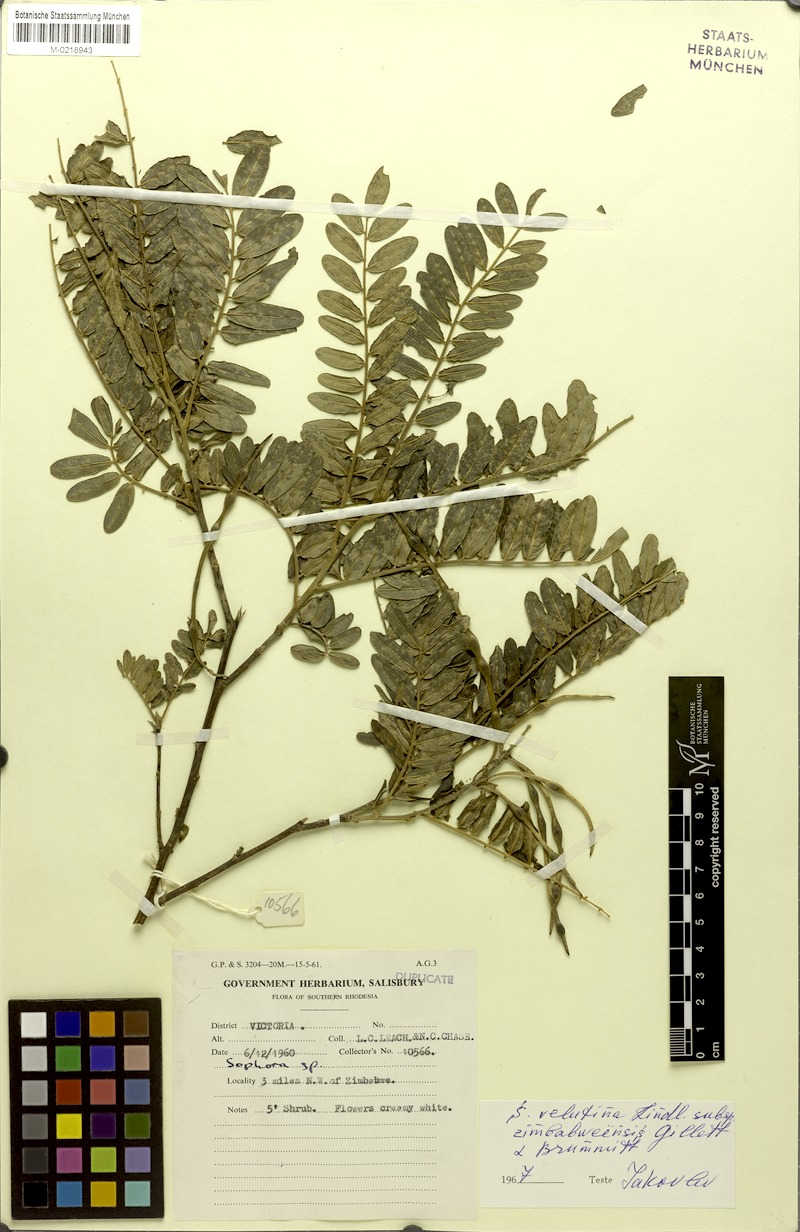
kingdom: Plantae
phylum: Tracheophyta
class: Magnoliopsida
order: Fabales
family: Fabaceae
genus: Sophora
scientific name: Sophora velutina
